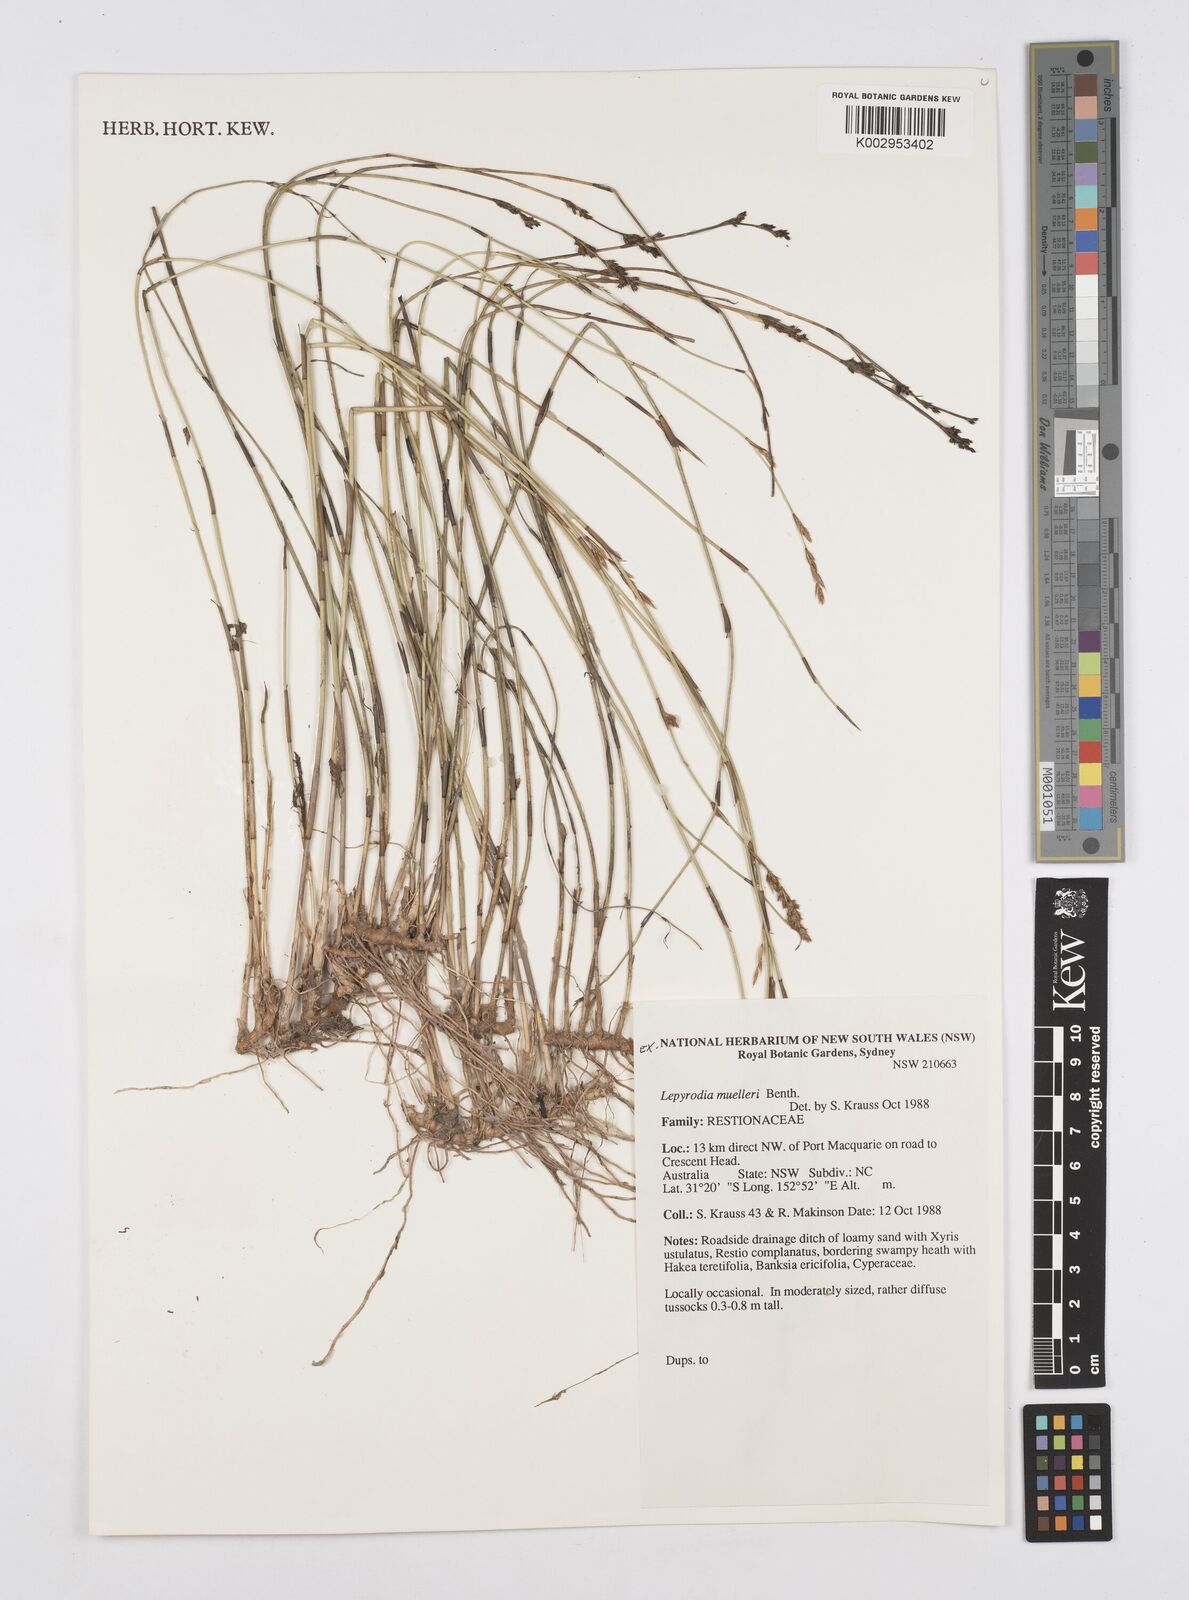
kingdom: Plantae
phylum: Tracheophyta
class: Liliopsida
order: Poales
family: Restionaceae
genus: Lepyrodia
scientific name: Lepyrodia muelleri
